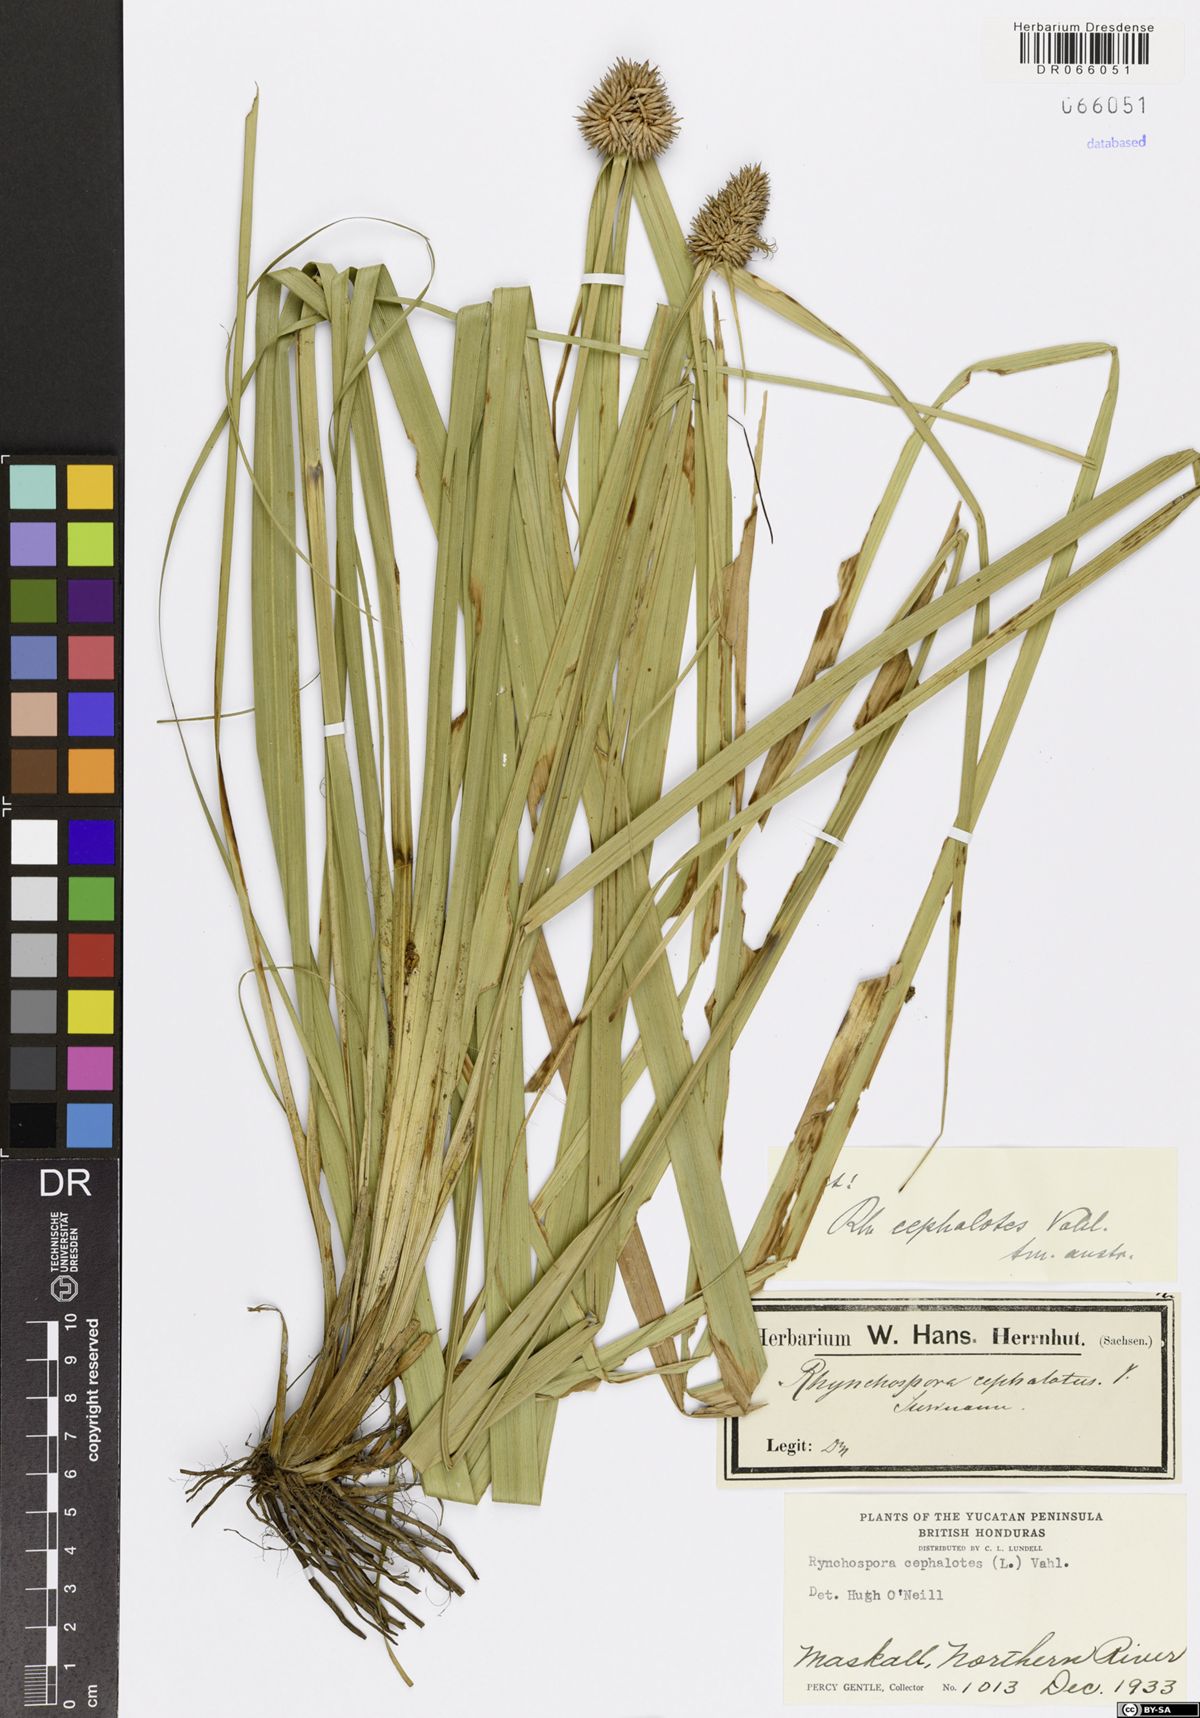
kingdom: Plantae
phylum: Tracheophyta
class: Liliopsida
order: Poales
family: Cyperaceae
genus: Rhynchospora
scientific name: Rhynchospora cephalotes
